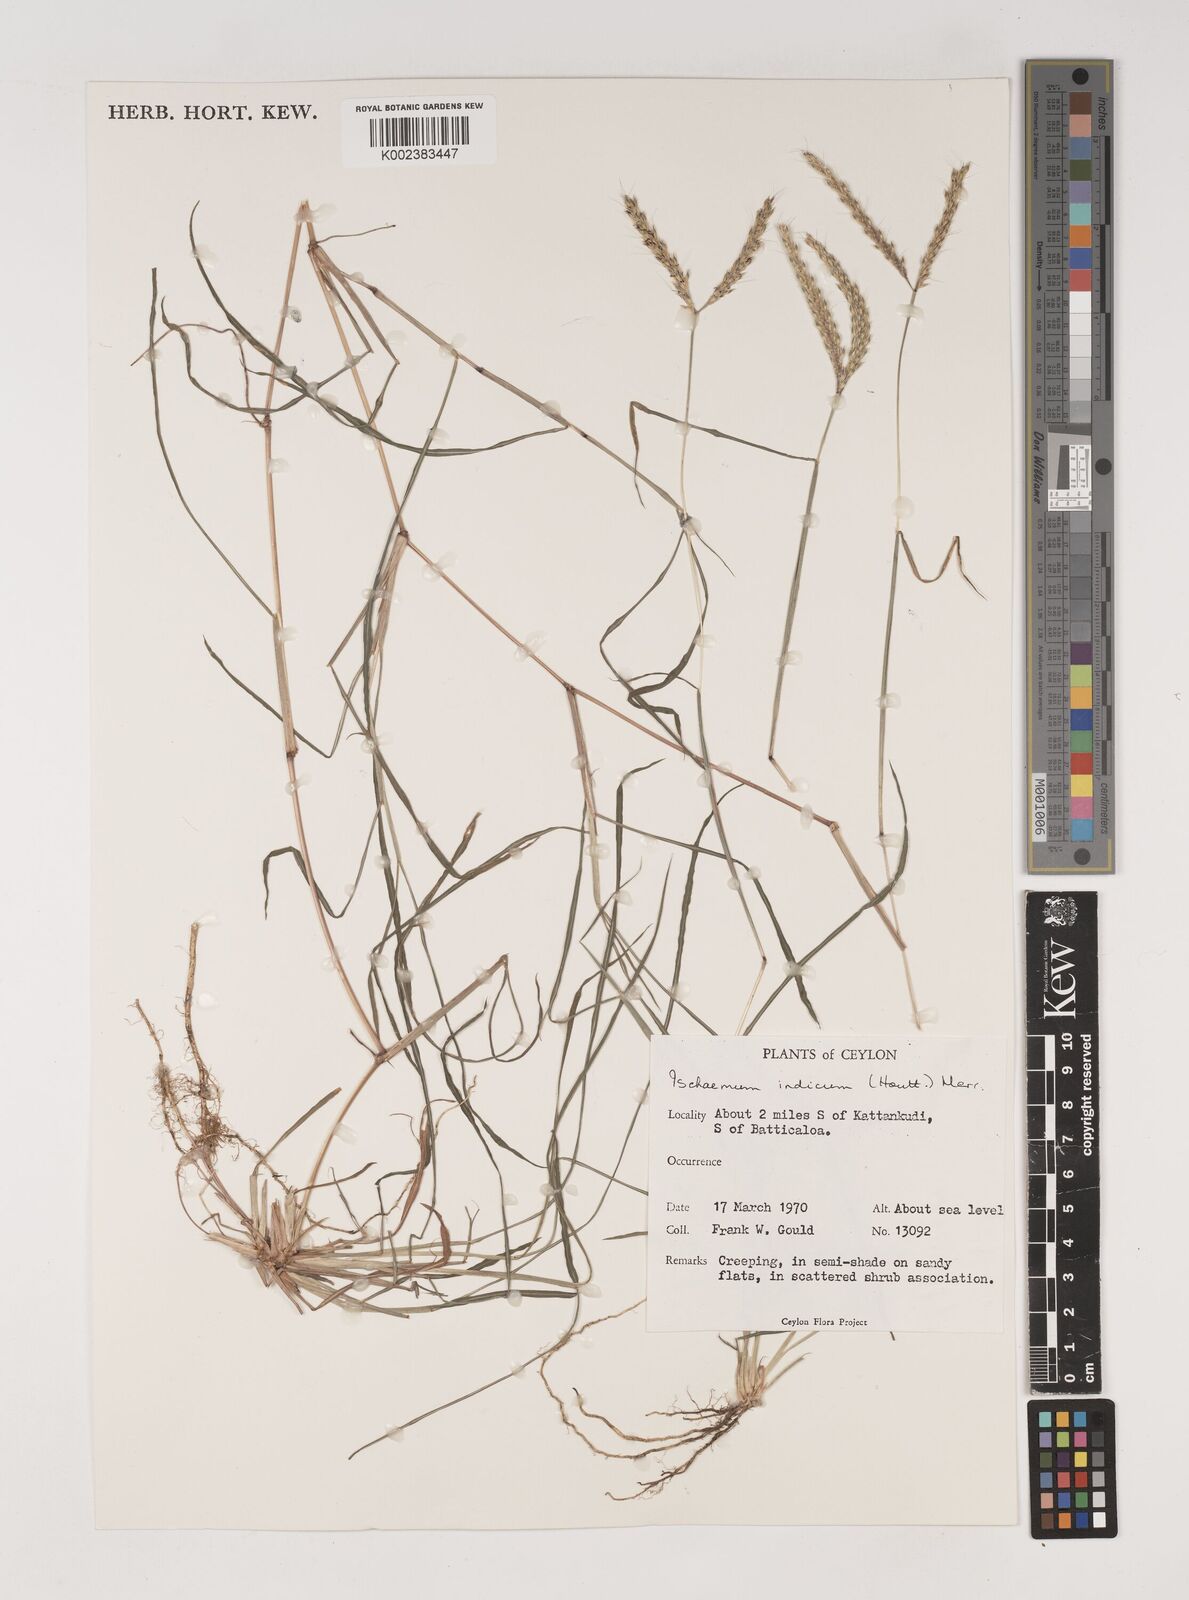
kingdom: Plantae
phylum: Tracheophyta
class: Liliopsida
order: Poales
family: Poaceae
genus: Polytrias
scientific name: Polytrias indica
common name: Indian murainagrass
